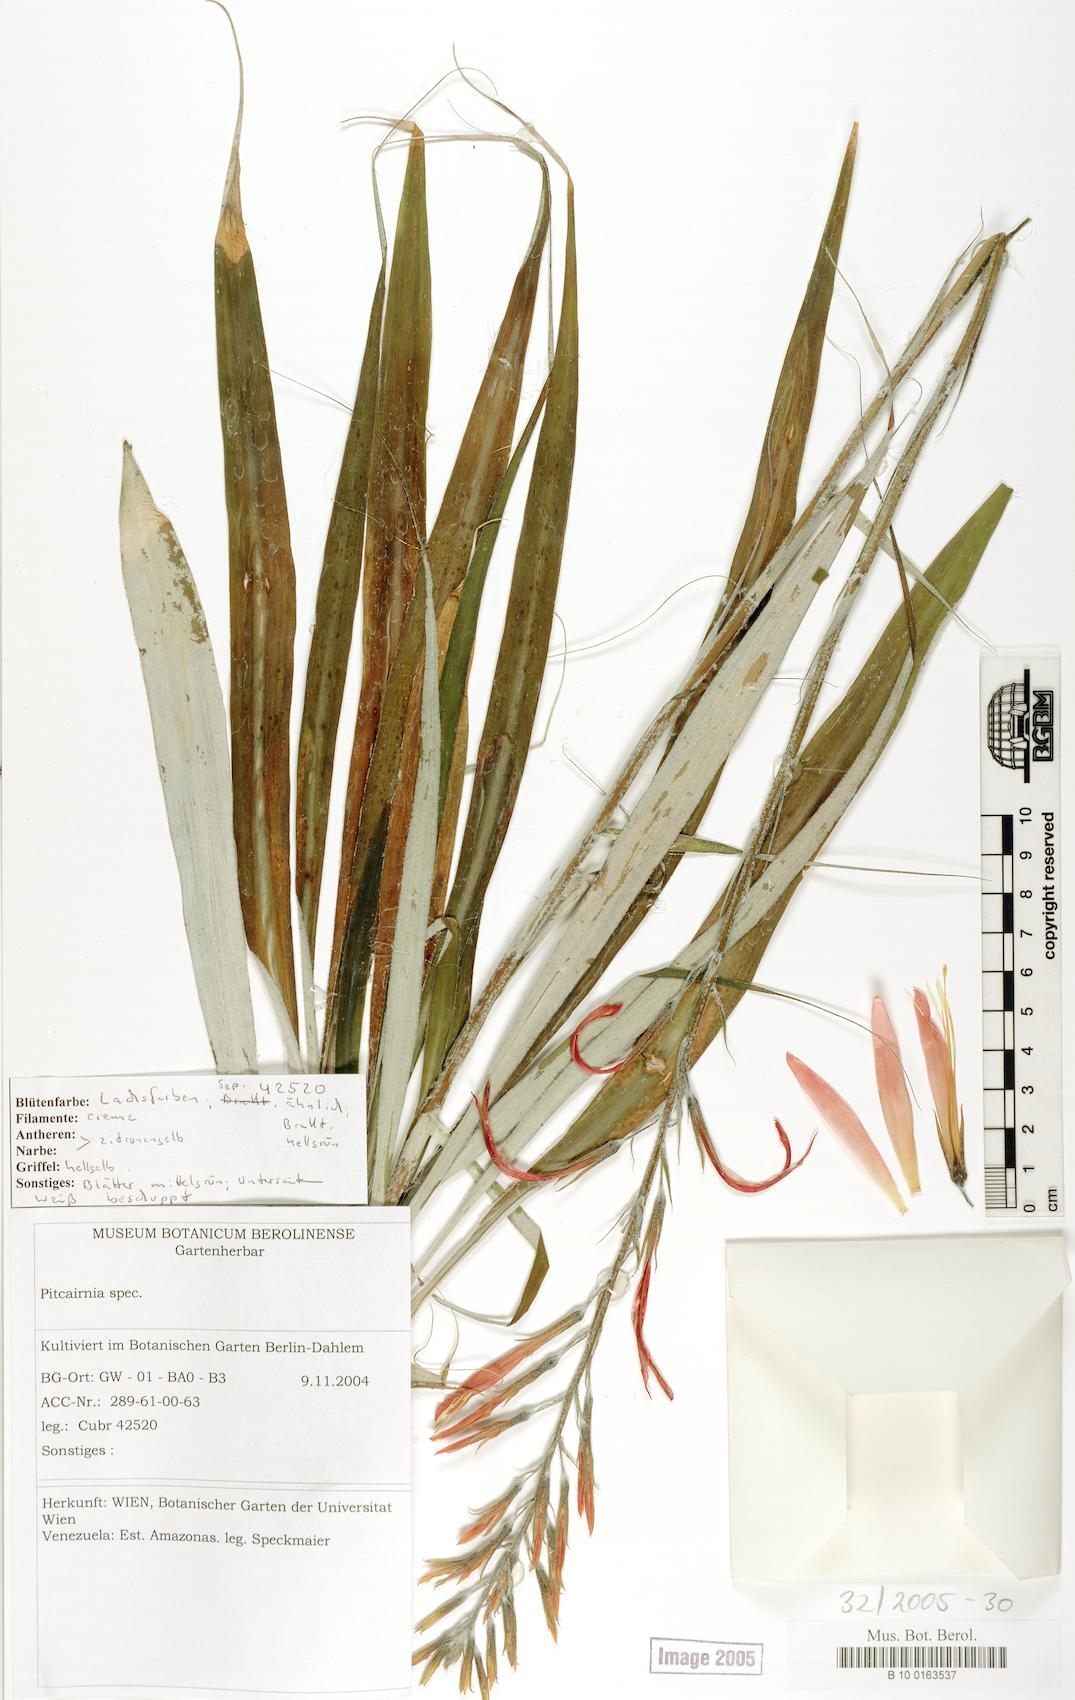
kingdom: Plantae
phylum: Tracheophyta
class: Liliopsida
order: Poales
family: Bromeliaceae
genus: Pitcairnia
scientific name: Pitcairnia
